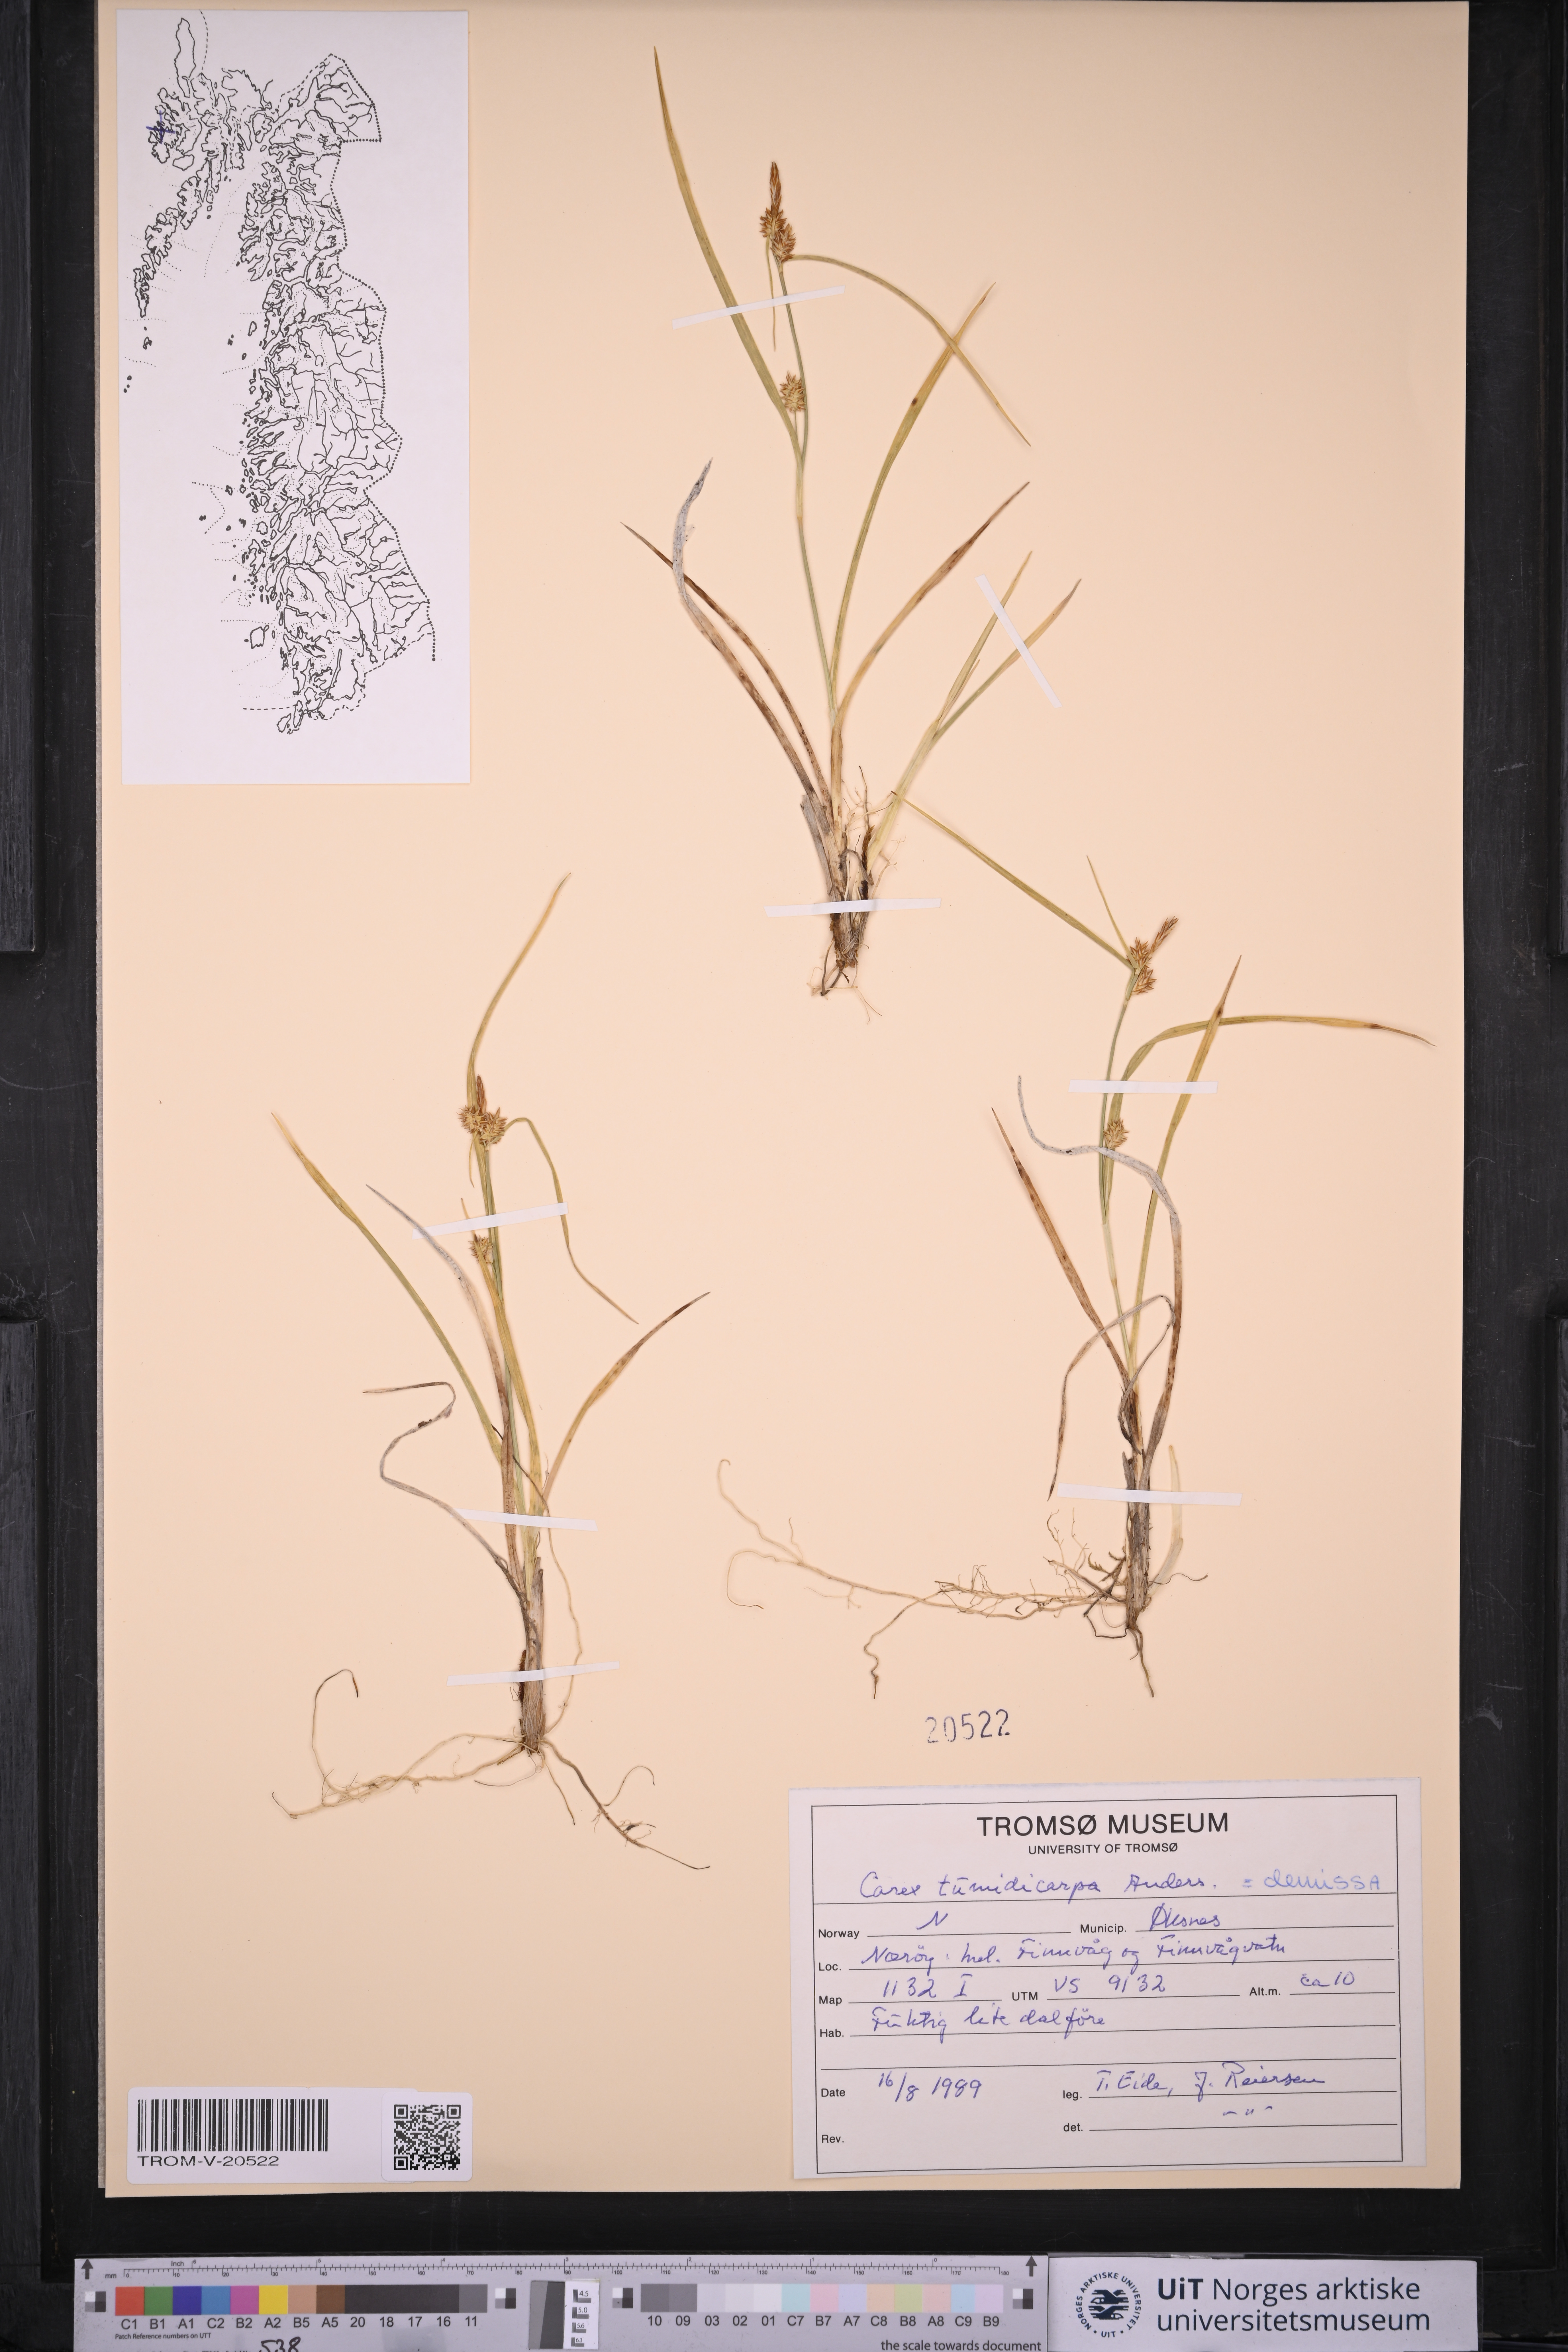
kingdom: Plantae
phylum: Tracheophyta
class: Liliopsida
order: Poales
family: Cyperaceae
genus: Carex
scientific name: Carex demissa
